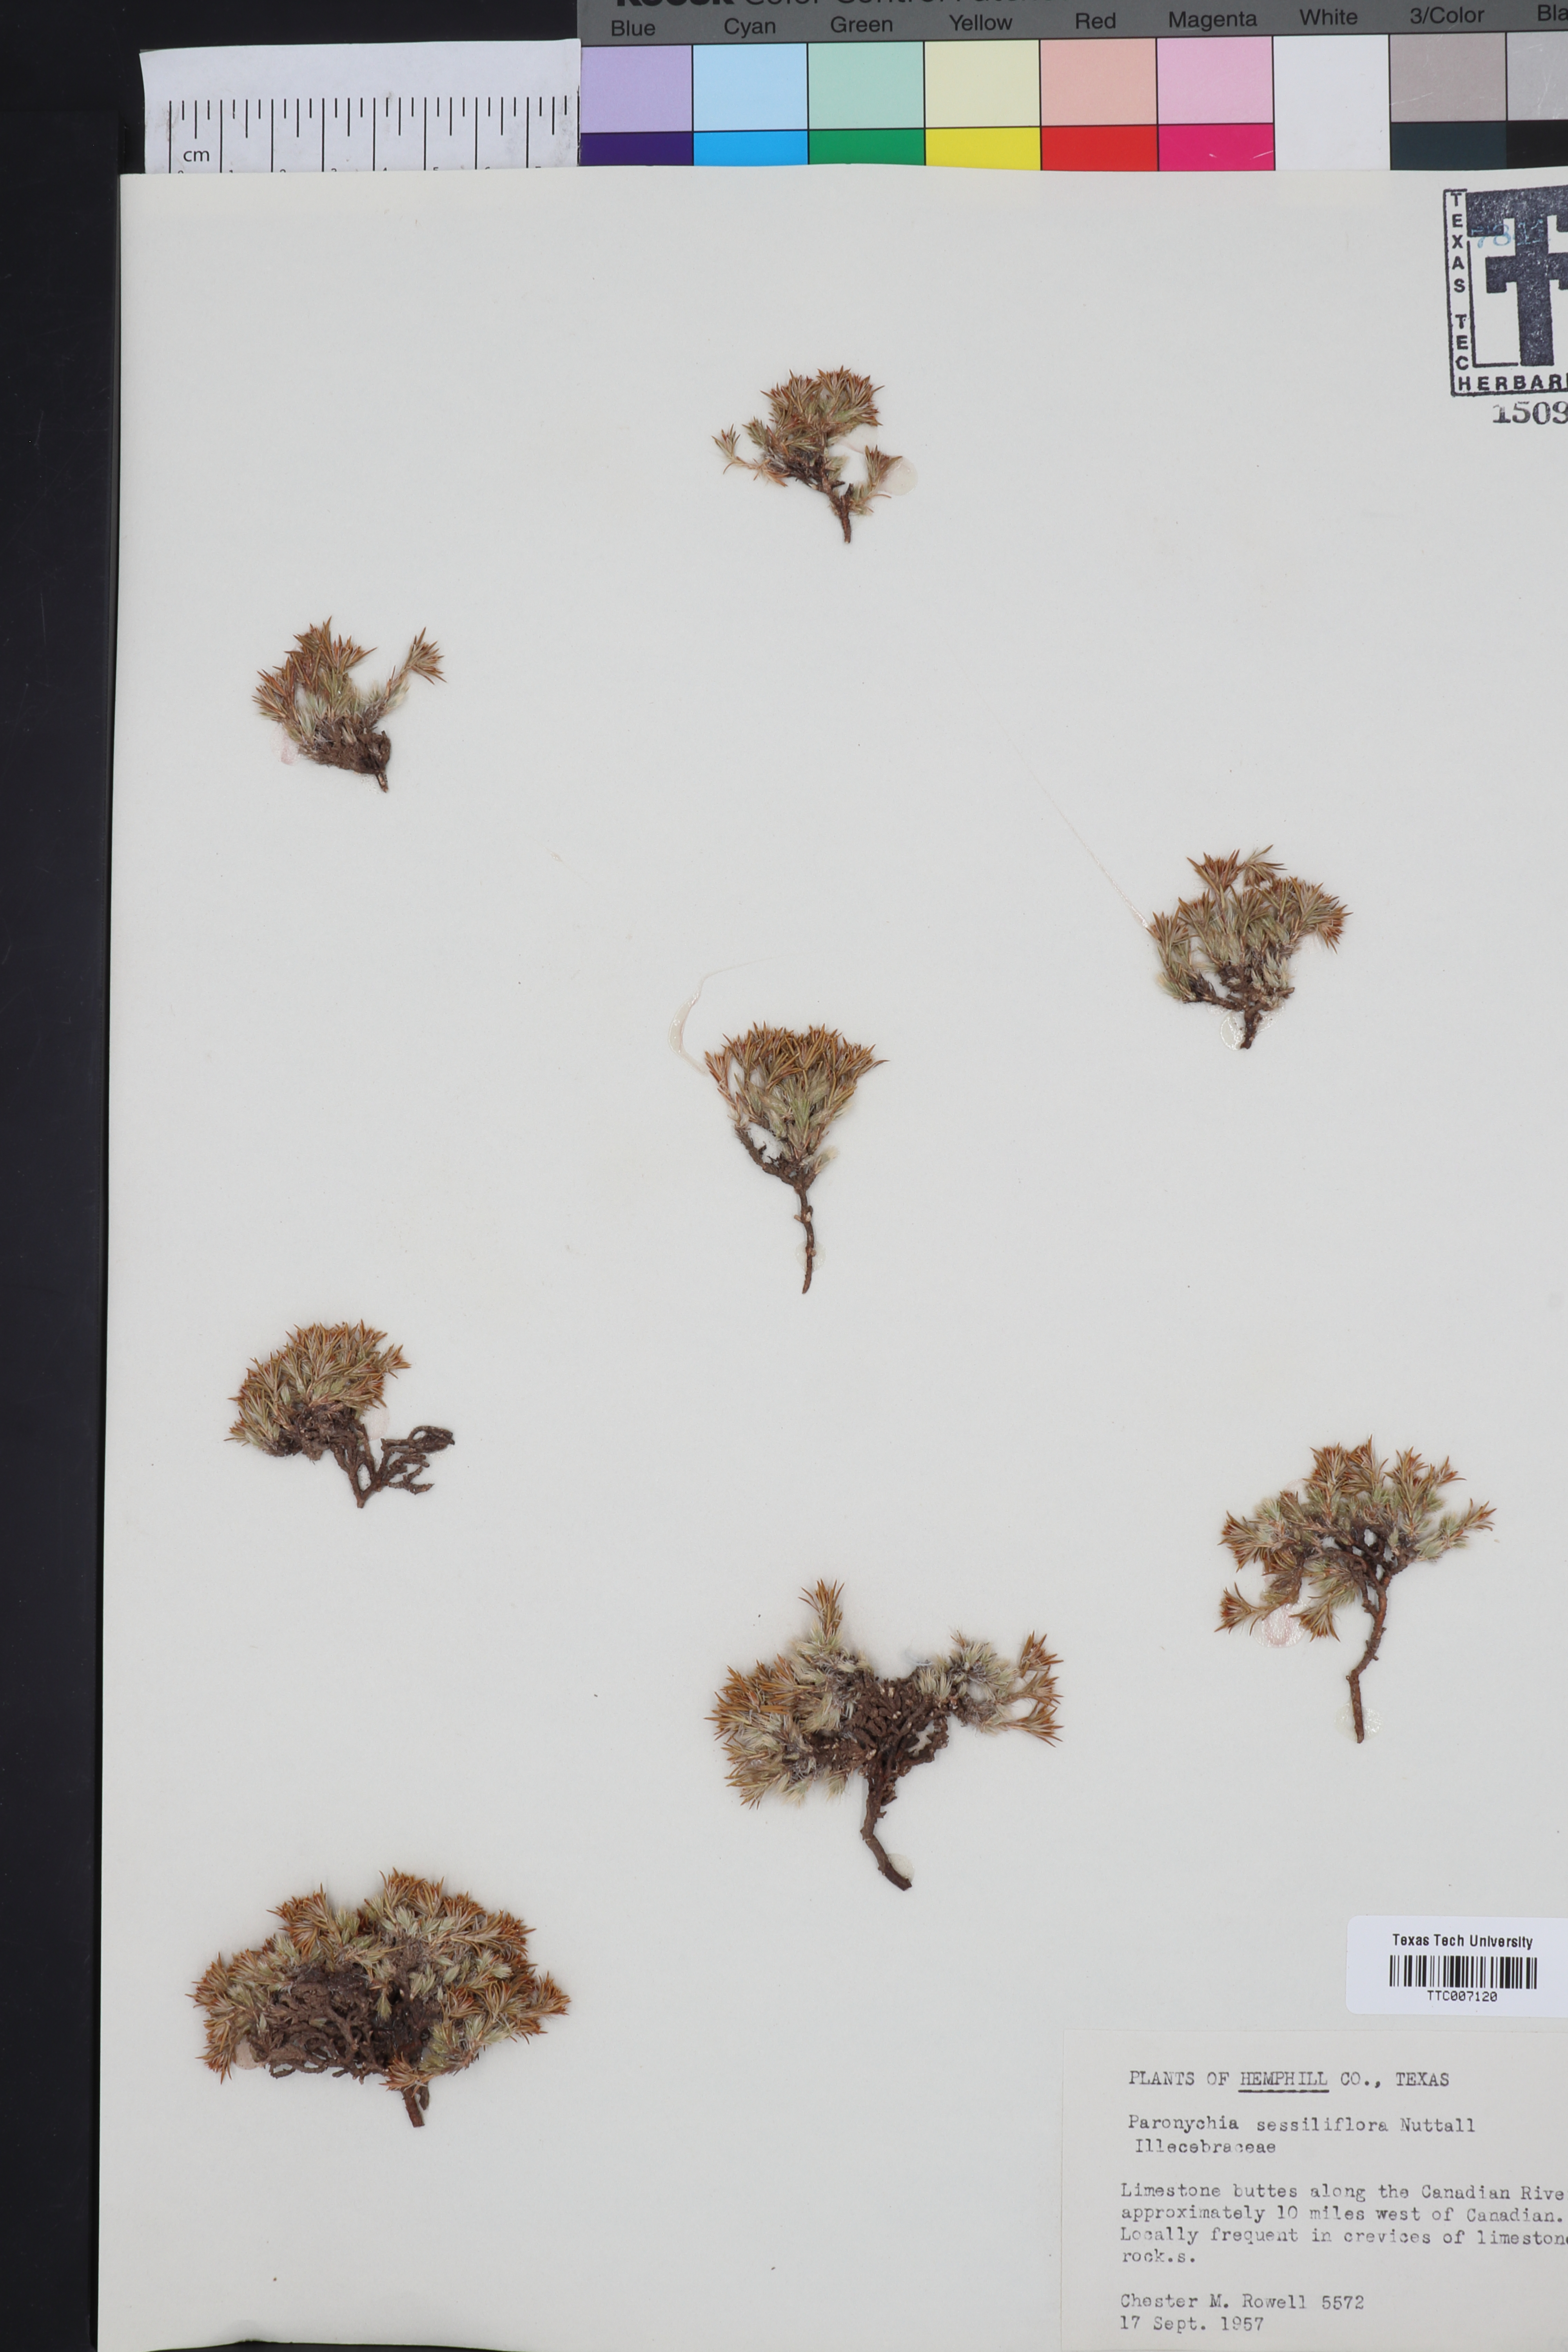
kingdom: Plantae
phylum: Tracheophyta
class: Magnoliopsida
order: Caryophyllales
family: Caryophyllaceae
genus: Paronychia
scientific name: Paronychia sessiliflora
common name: Creeping nailwort
